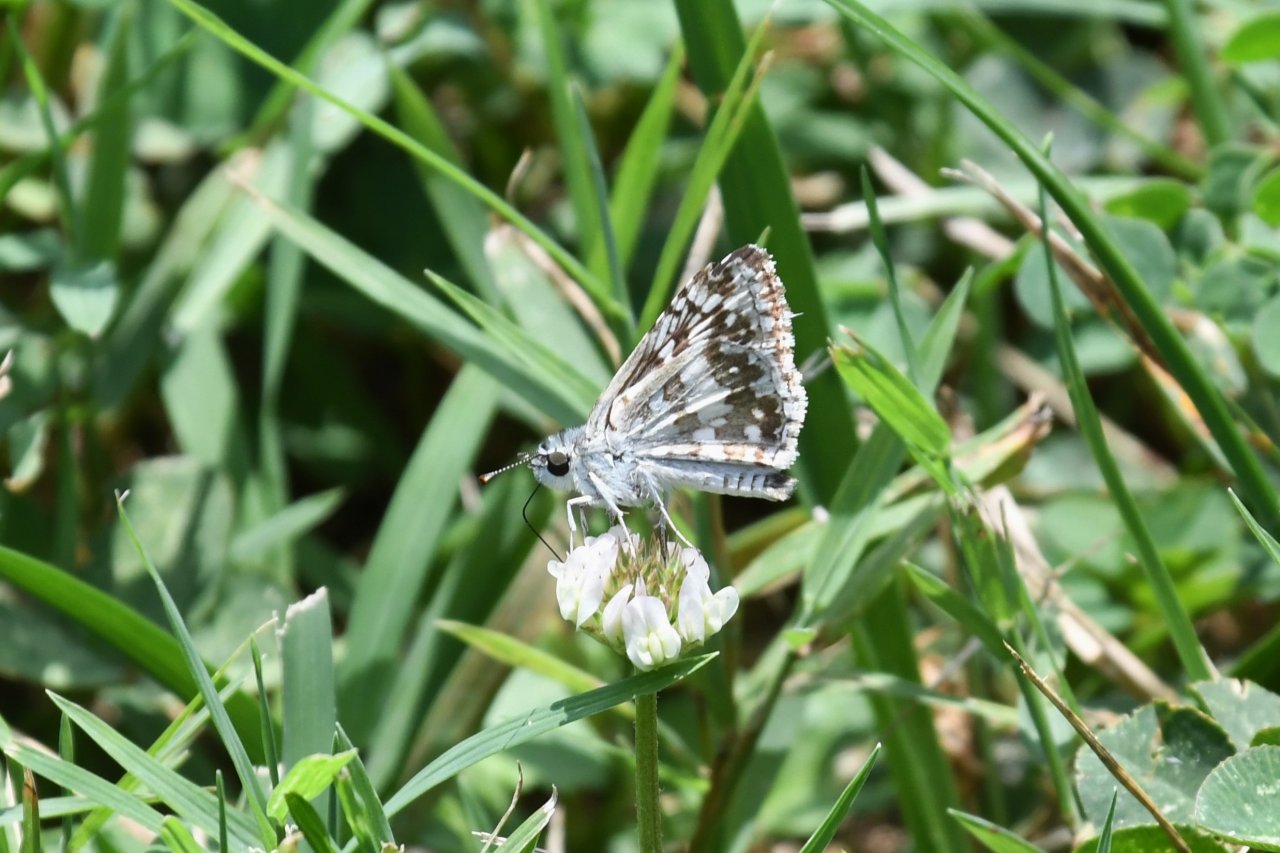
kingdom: Animalia
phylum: Arthropoda
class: Insecta
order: Lepidoptera
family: Hesperiidae
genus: Pyrgus
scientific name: Pyrgus communis
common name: Common Checkered-Skipper
